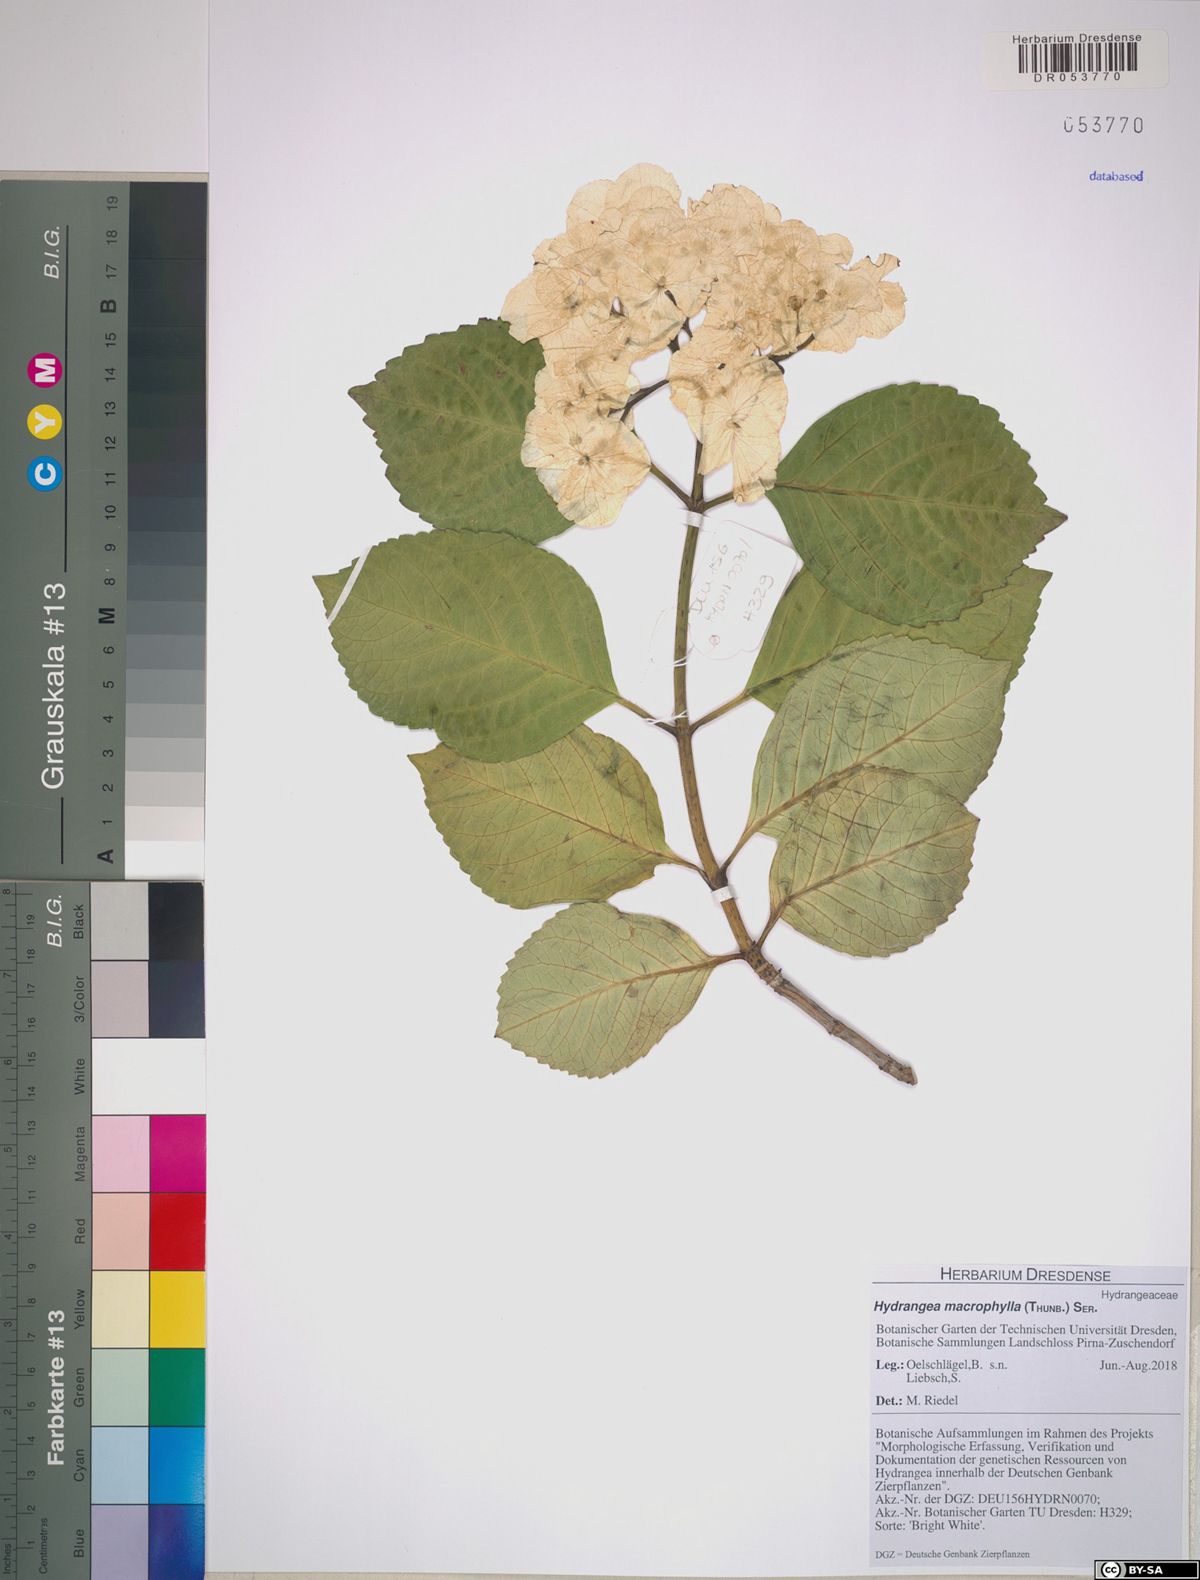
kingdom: Plantae
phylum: Tracheophyta
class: Magnoliopsida
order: Cornales
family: Hydrangeaceae
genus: Hydrangea
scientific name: Hydrangea macrophylla
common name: Hydrangea
